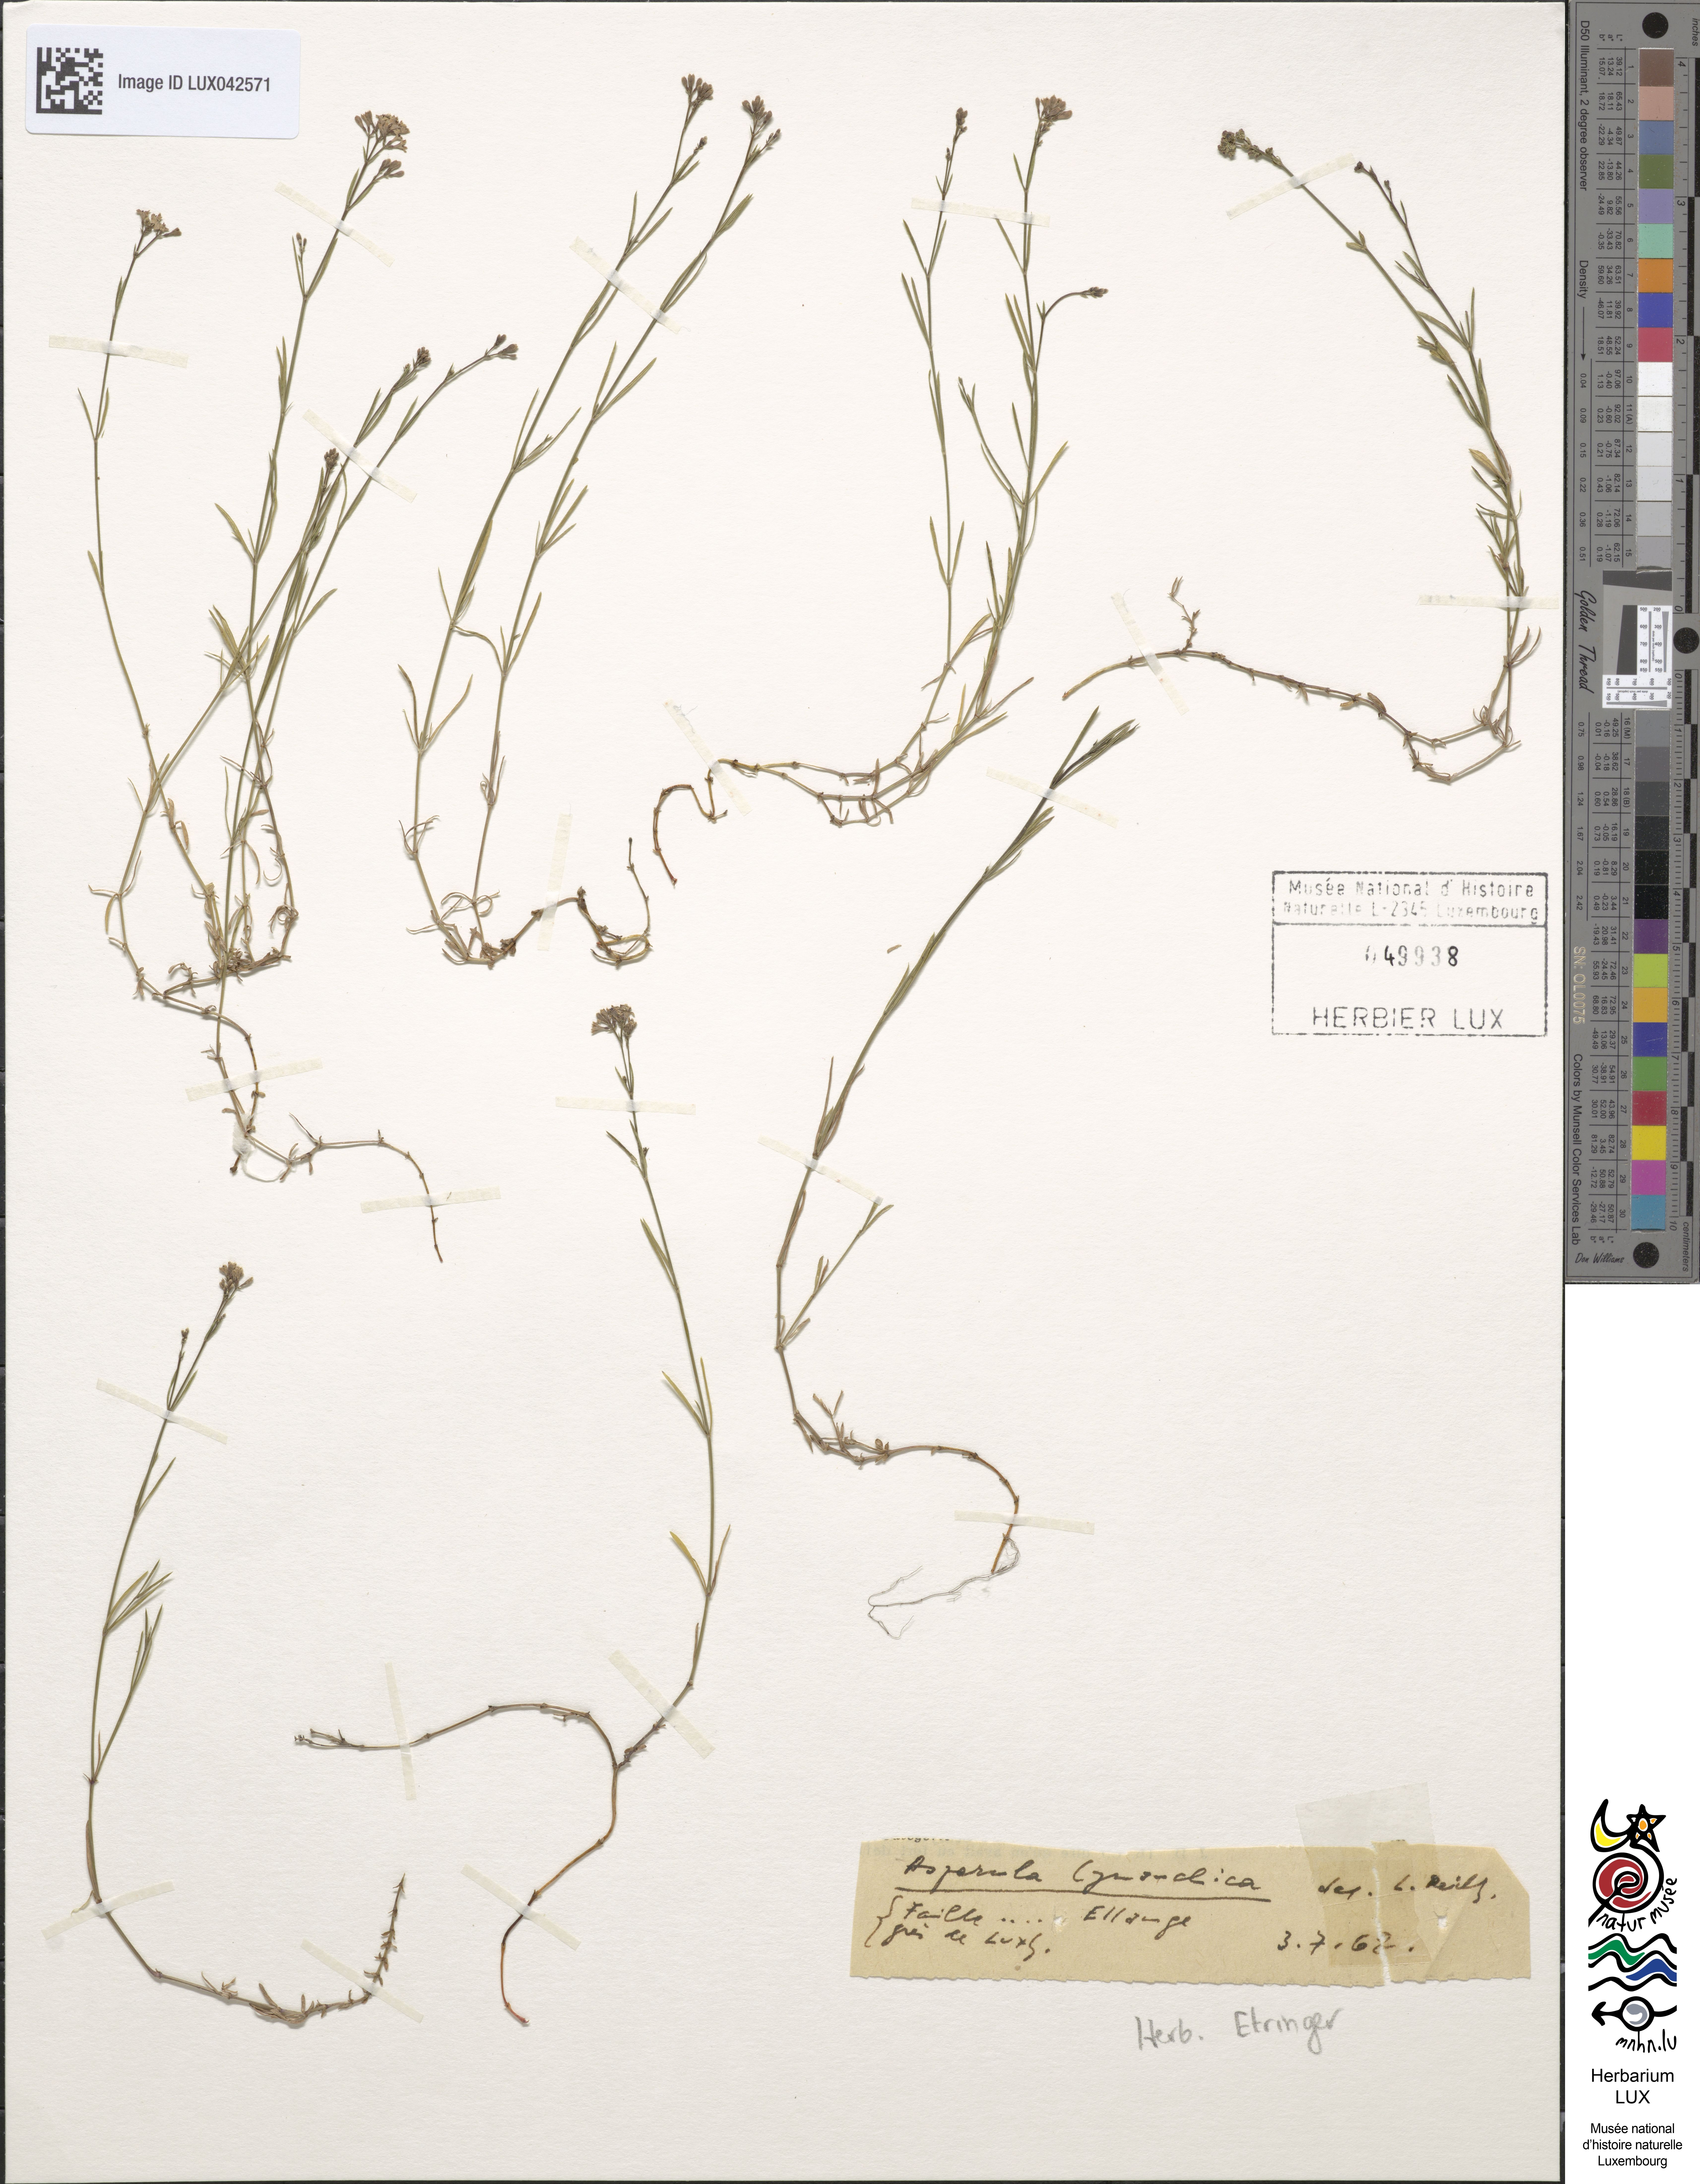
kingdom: Plantae
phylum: Tracheophyta
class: Magnoliopsida
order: Gentianales
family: Rubiaceae
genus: Cynanchica
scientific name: Cynanchica pyrenaica
